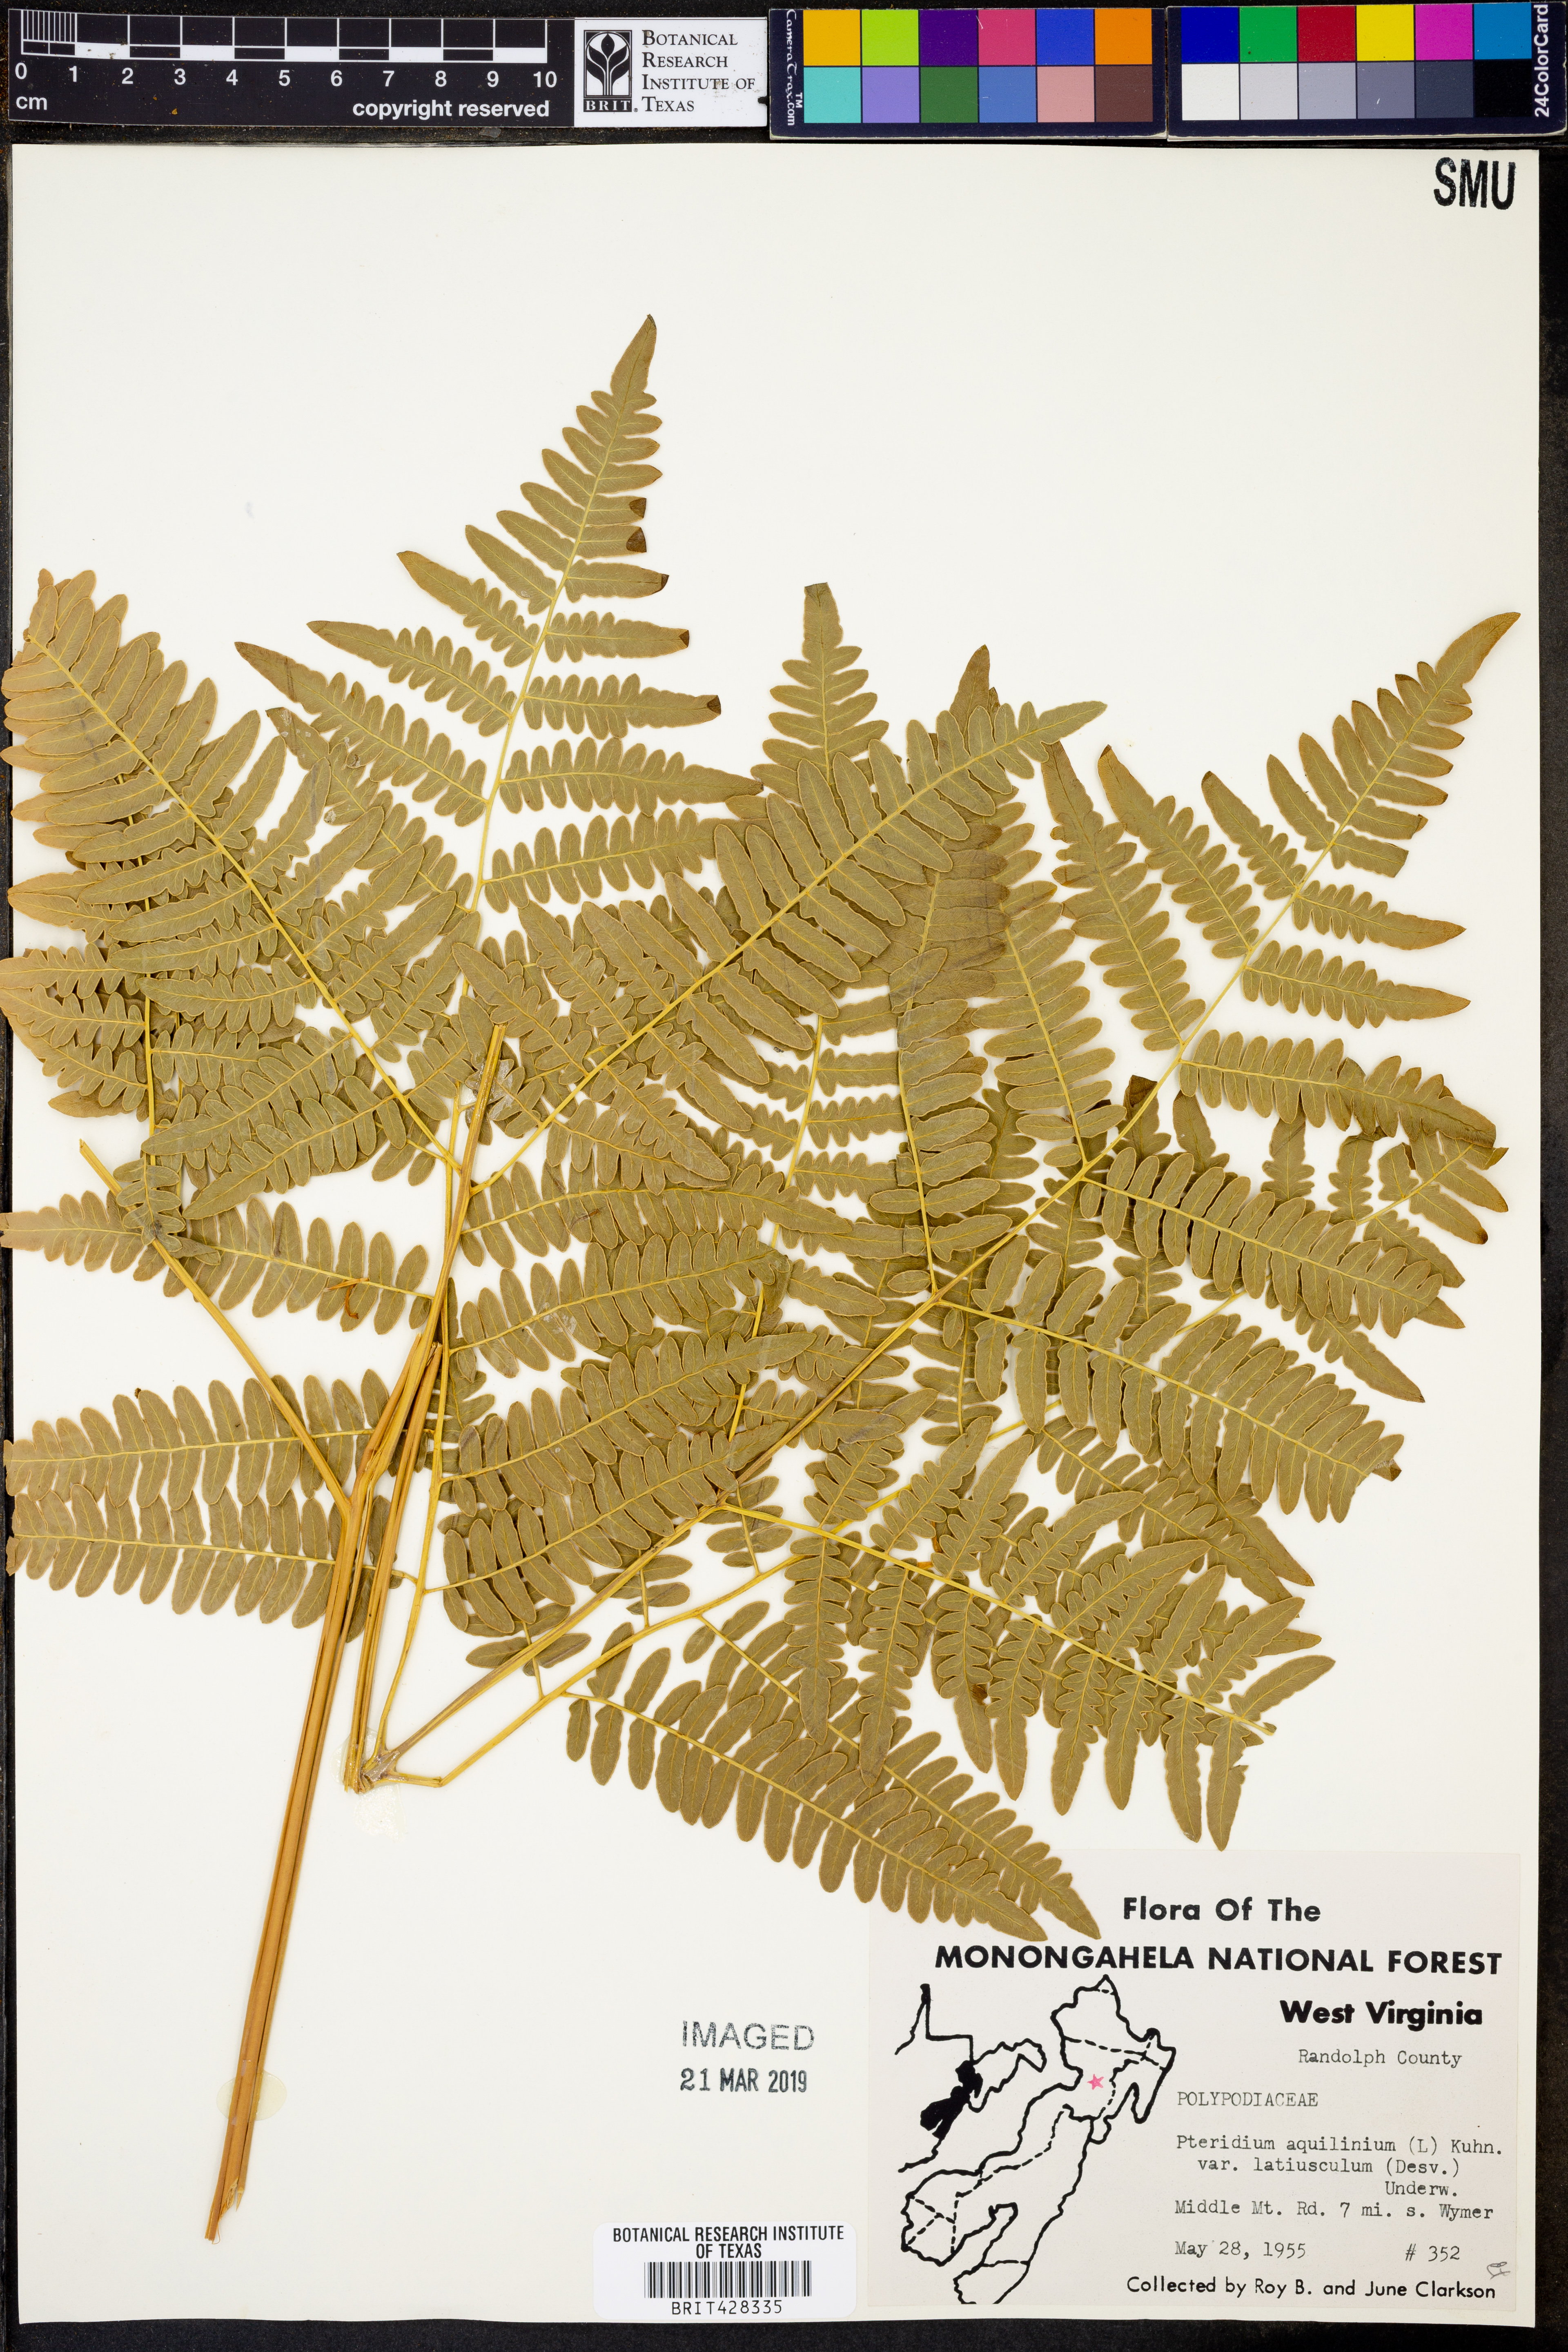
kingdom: Plantae
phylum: Tracheophyta
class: Polypodiopsida
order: Polypodiales
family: Dennstaedtiaceae
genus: Pteridium
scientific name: Pteridium aquilinum
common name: Bracken
